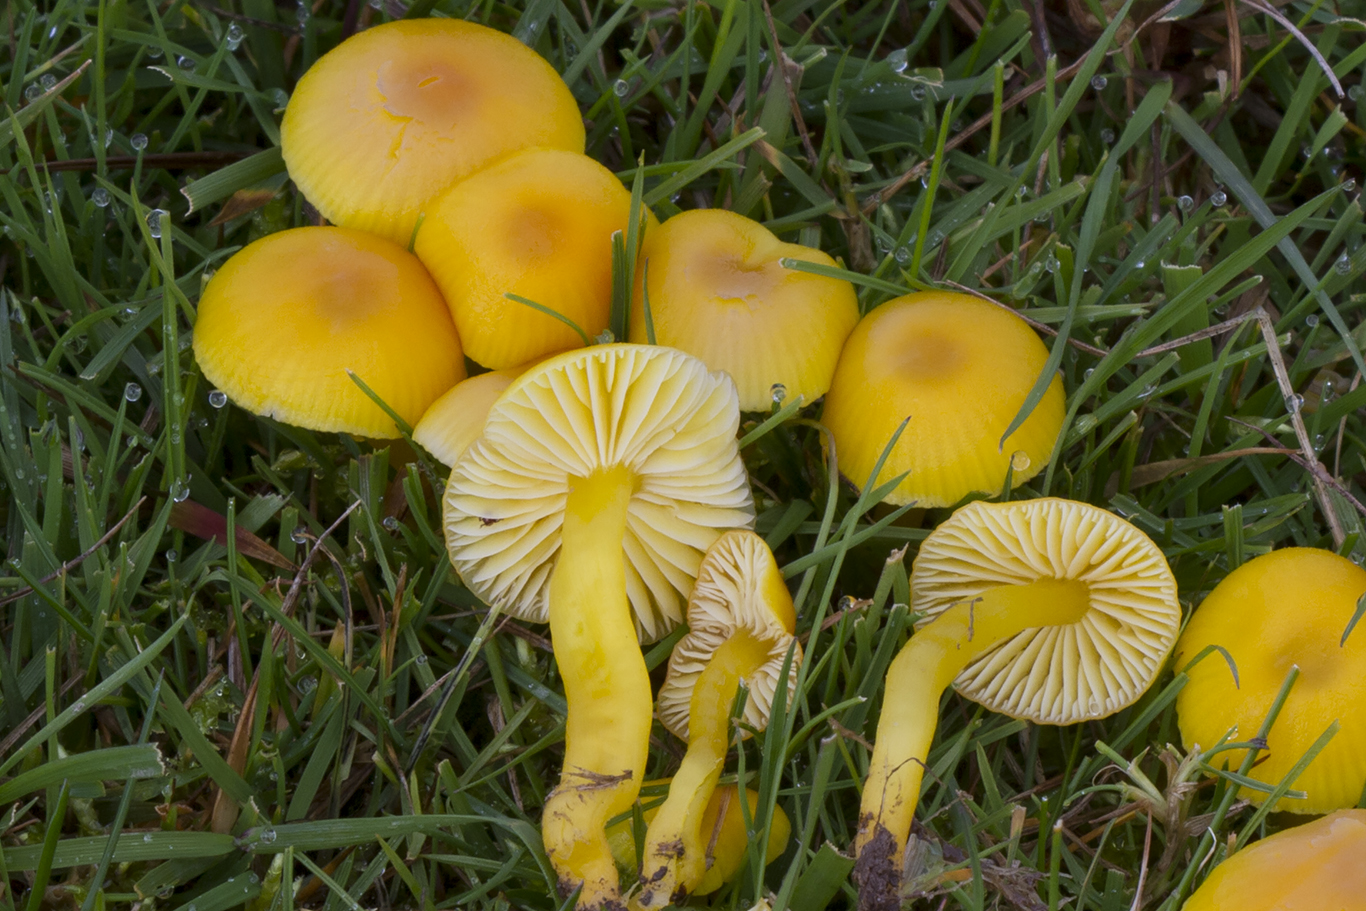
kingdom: Fungi
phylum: Basidiomycota
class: Agaricomycetes
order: Agaricales
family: Hygrophoraceae
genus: Hygrocybe
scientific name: Hygrocybe ceracea
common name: voksgul vokshat
